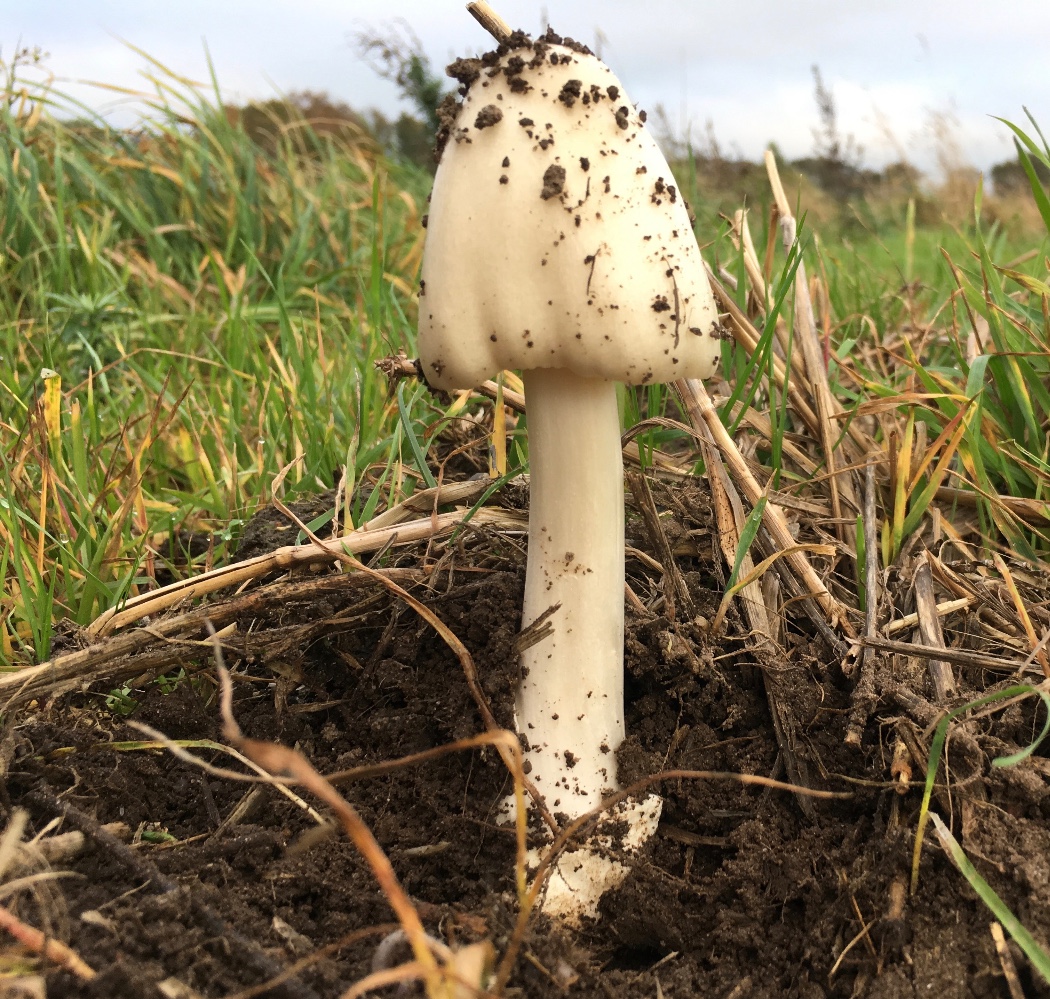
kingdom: Fungi
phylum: Basidiomycota
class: Agaricomycetes
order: Agaricales
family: Pluteaceae
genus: Volvopluteus
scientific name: Volvopluteus gloiocephalus
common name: høj posesvamp
